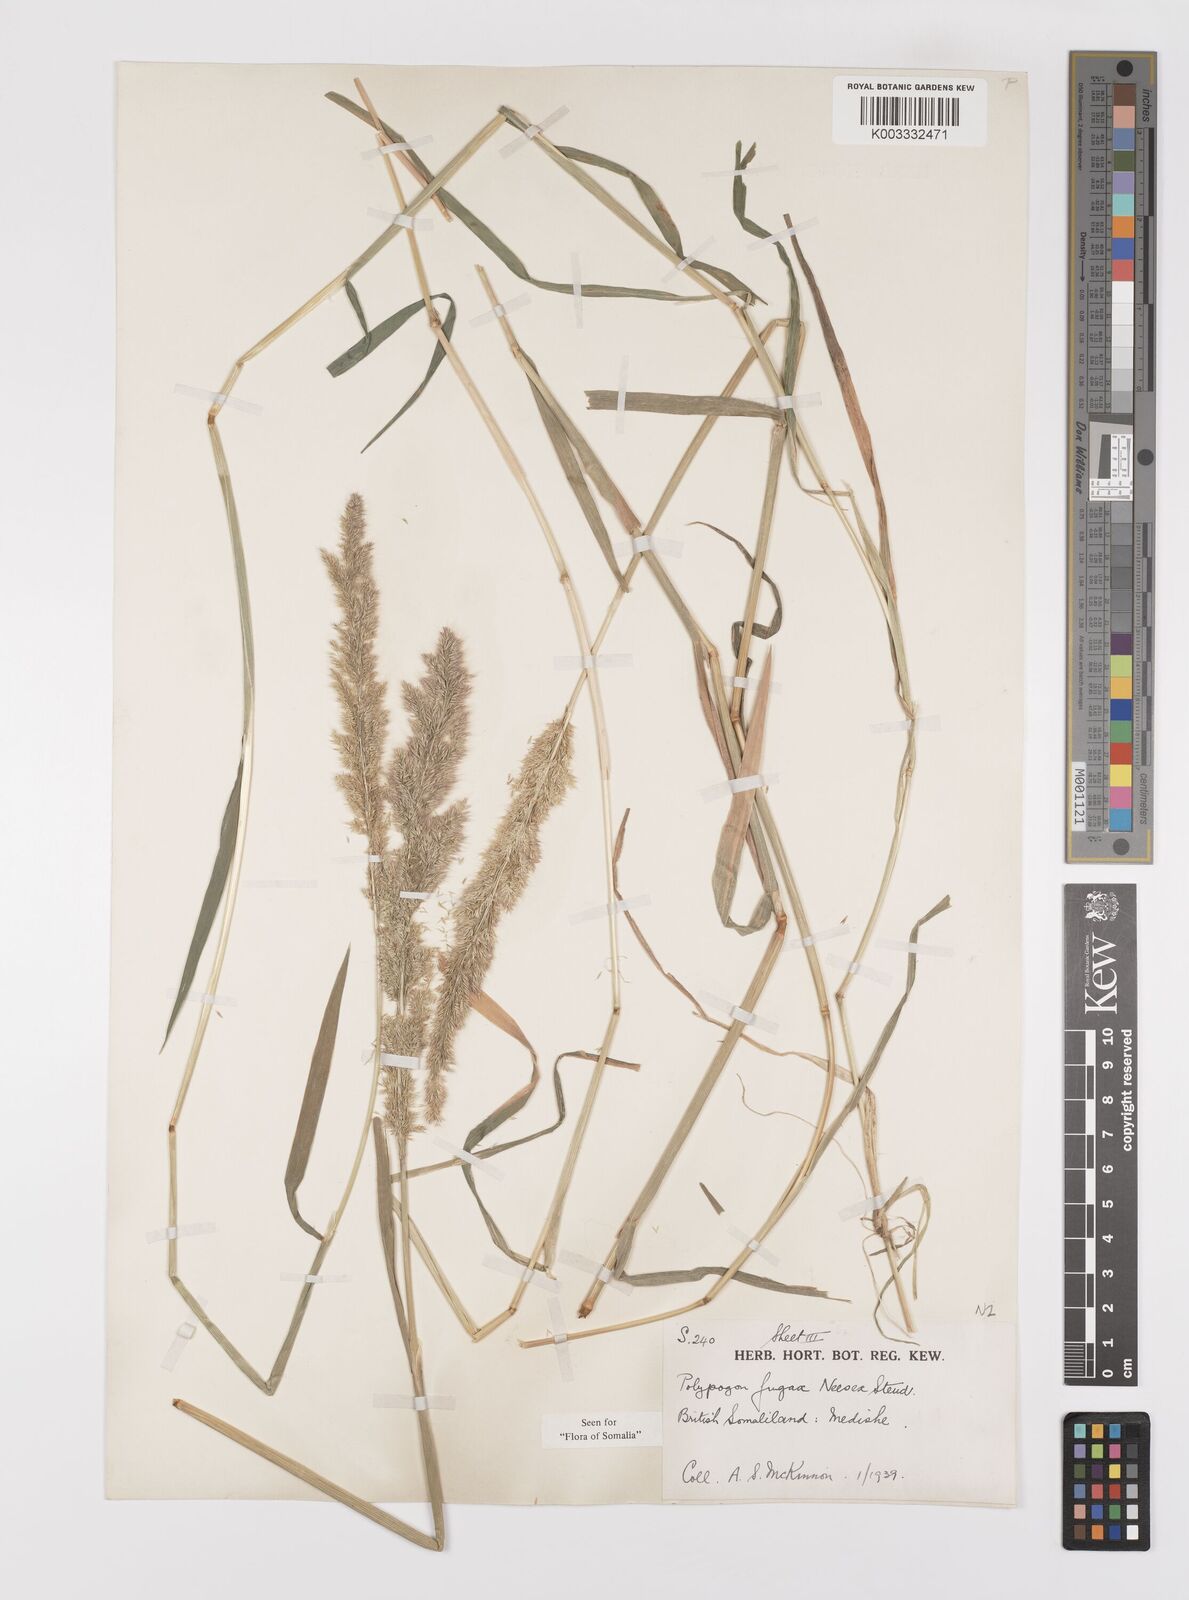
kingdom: Plantae
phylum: Tracheophyta
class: Liliopsida
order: Poales
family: Poaceae
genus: Polypogon
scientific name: Polypogon fugax
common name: Asia minor bluegrass
